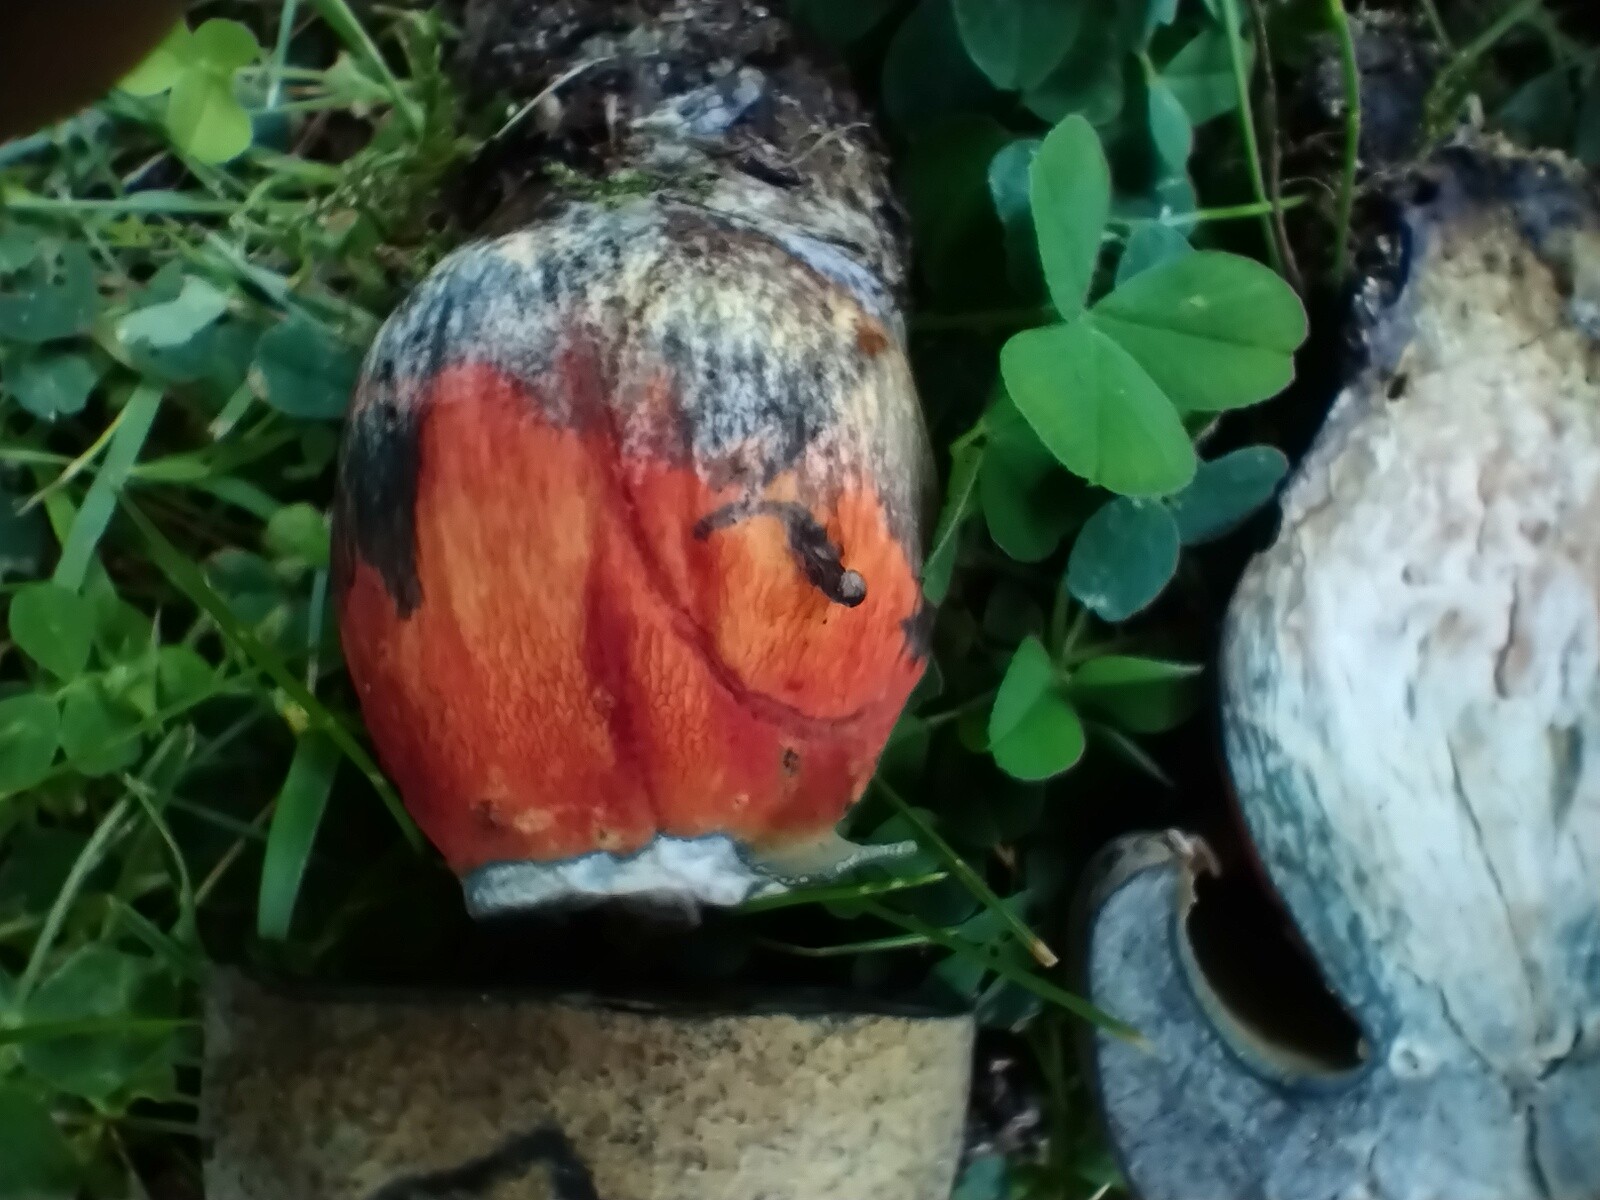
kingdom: Fungi
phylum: Basidiomycota
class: Agaricomycetes
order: Boletales
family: Boletaceae
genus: Suillellus
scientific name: Suillellus luridus
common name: netstokket indigorørhat
